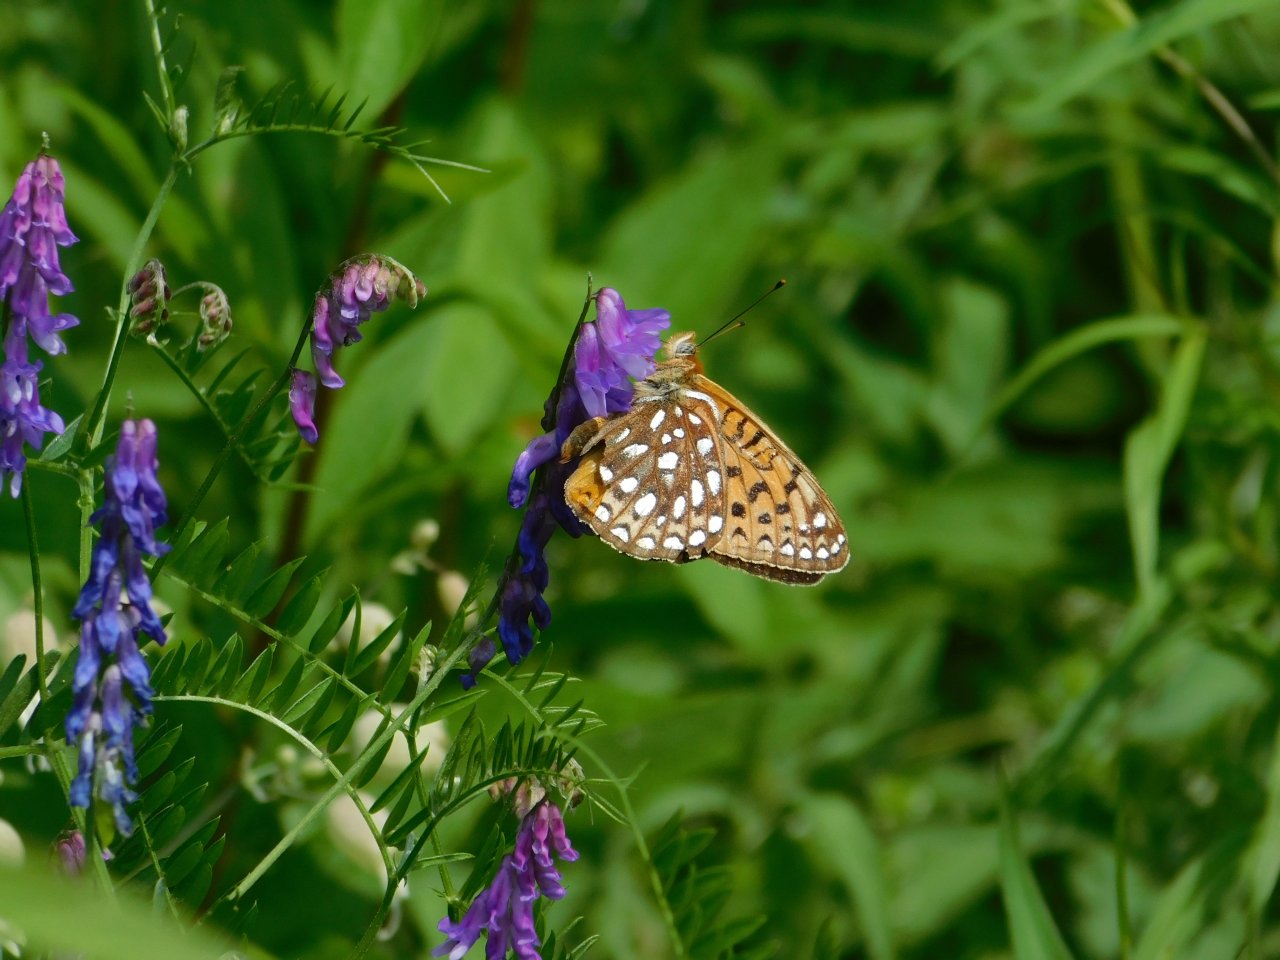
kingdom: Animalia
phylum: Arthropoda
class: Insecta
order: Lepidoptera
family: Nymphalidae
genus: Speyeria
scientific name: Speyeria atlantis
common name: Atlantis Fritillary
